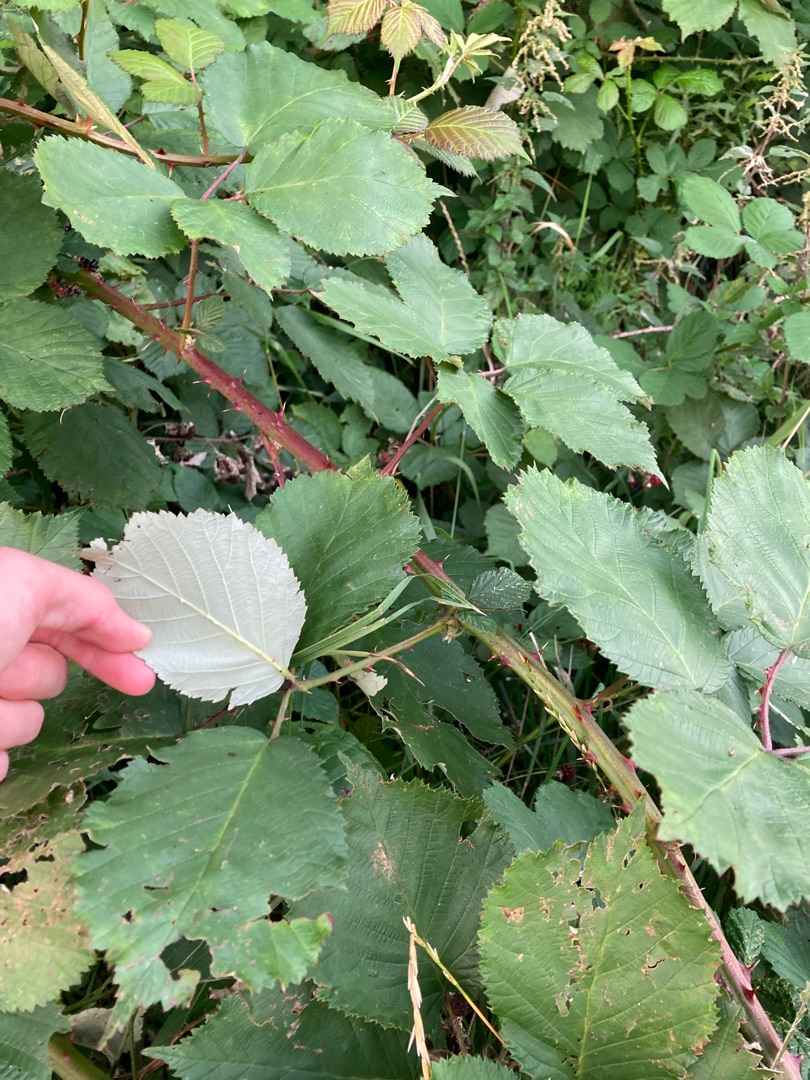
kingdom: Plantae
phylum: Tracheophyta
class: Magnoliopsida
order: Rosales
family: Rosaceae
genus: Rubus
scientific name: Rubus armeniacus
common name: Armensk brombær
